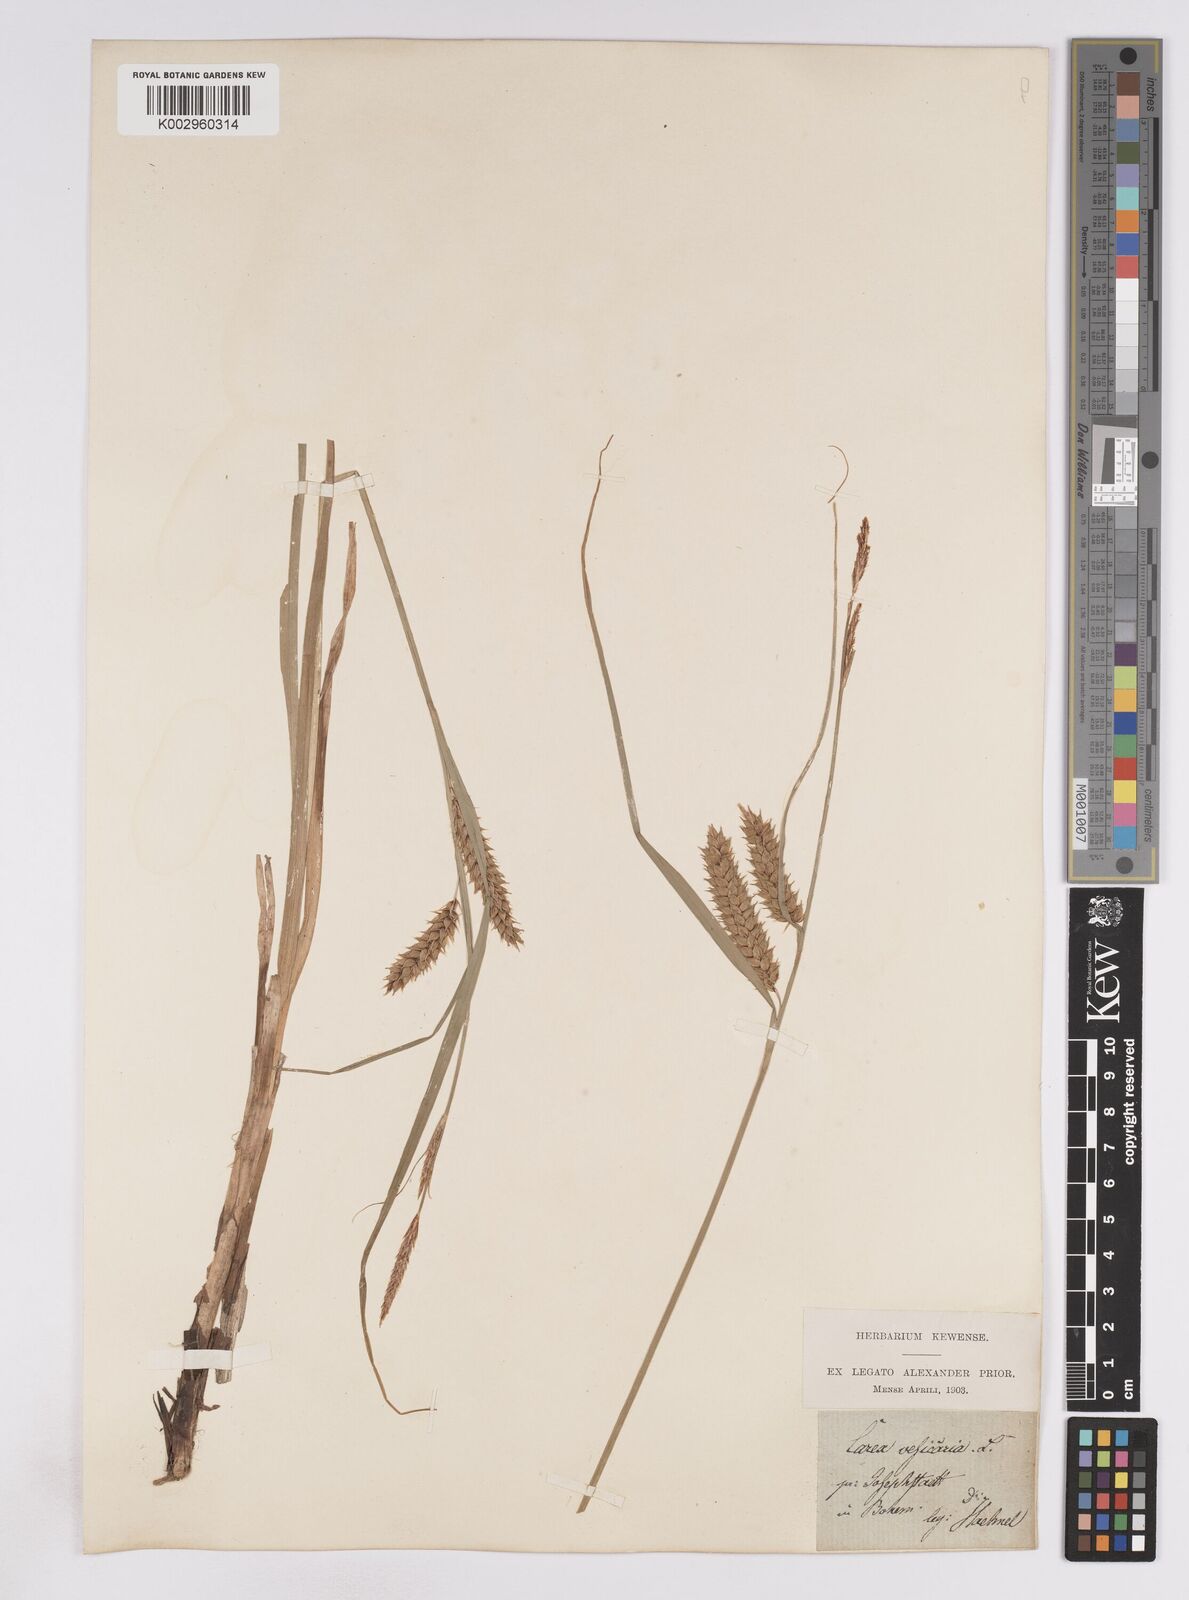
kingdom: Plantae
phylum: Tracheophyta
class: Liliopsida
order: Poales
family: Cyperaceae
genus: Carex
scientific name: Carex vesicaria
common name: Bladder-sedge
